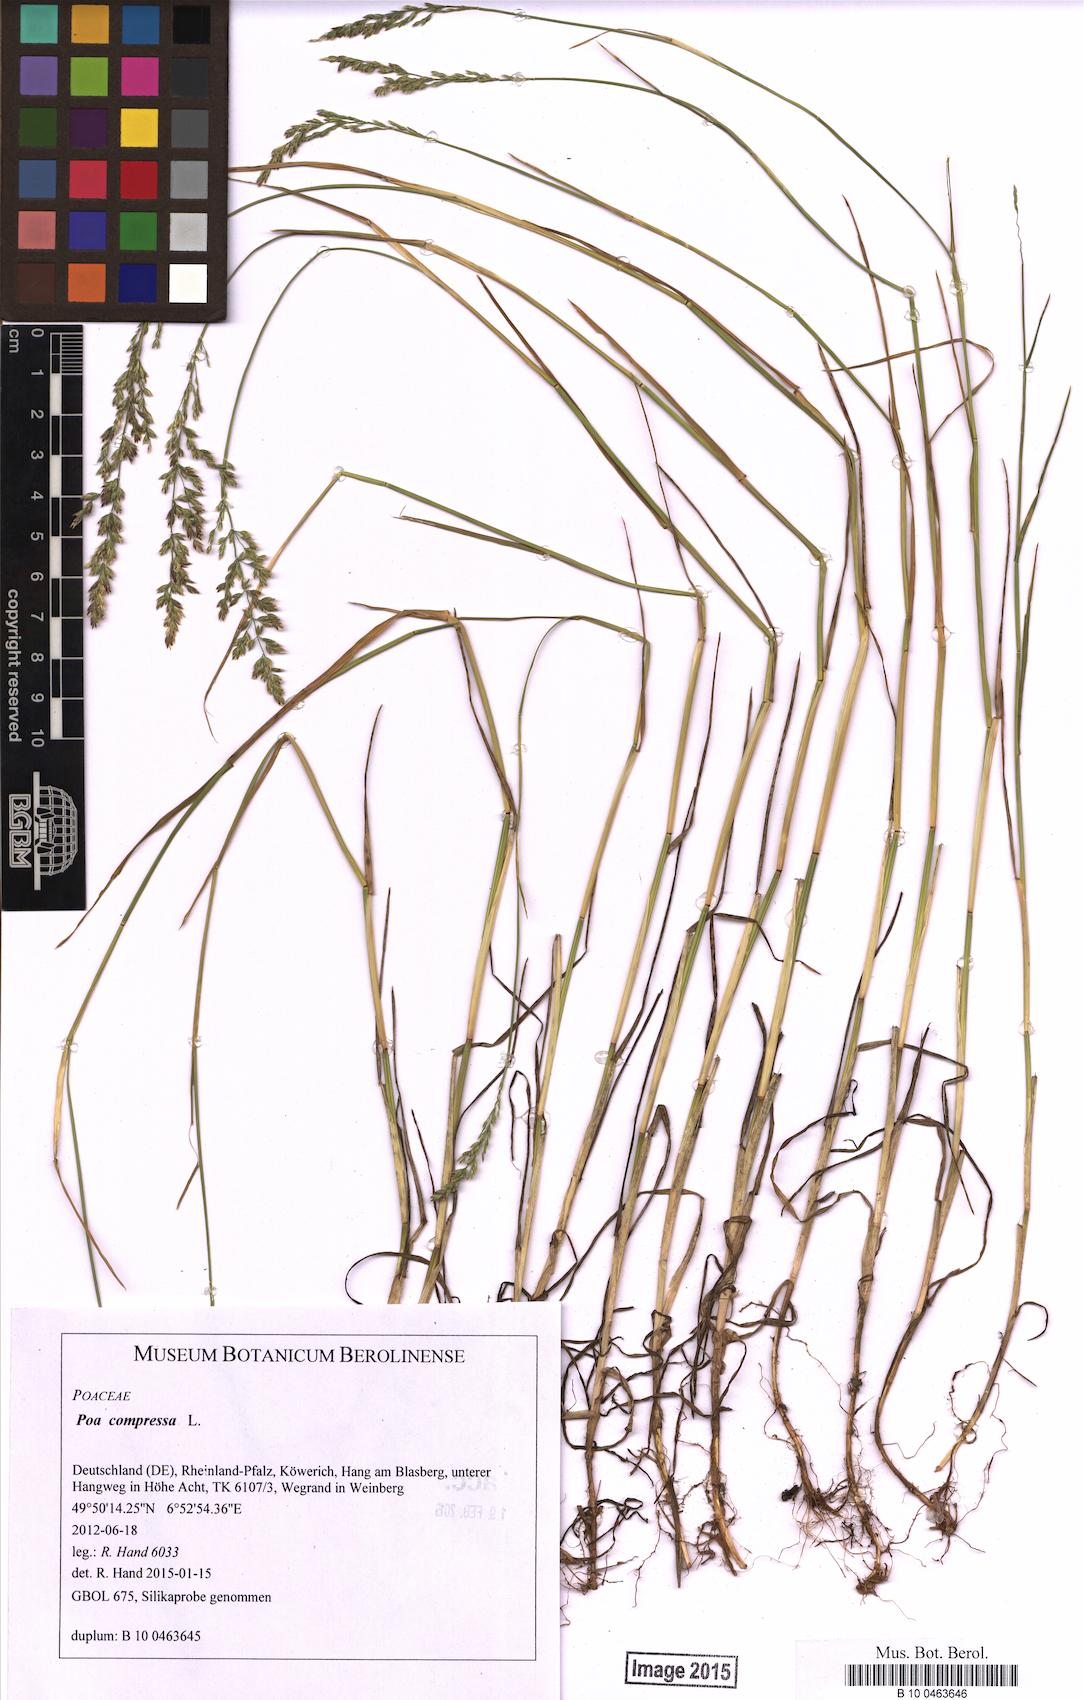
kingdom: Plantae
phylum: Tracheophyta
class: Liliopsida
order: Poales
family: Poaceae
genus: Poa
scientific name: Poa compressa
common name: Canada bluegrass
